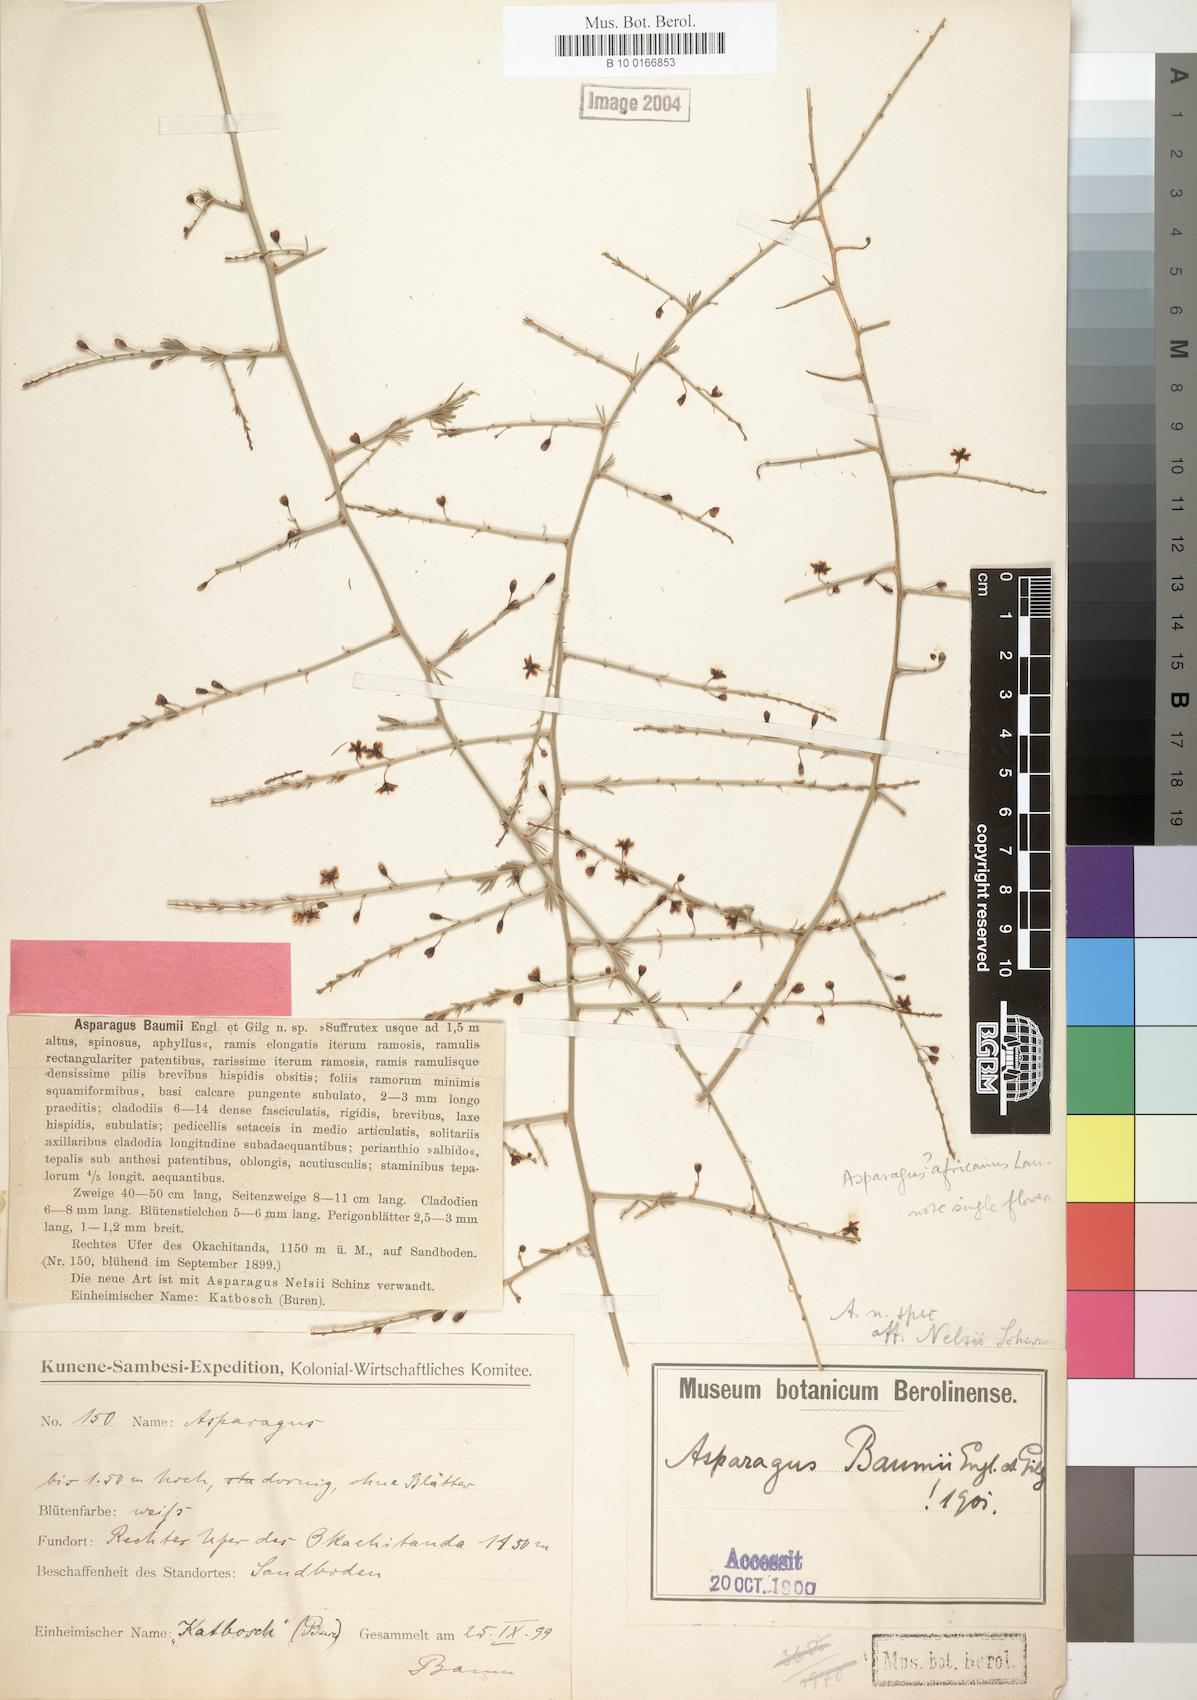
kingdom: Plantae
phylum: Tracheophyta
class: Liliopsida
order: Asparagales
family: Asparagaceae
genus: Asparagus
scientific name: Asparagus baumii
